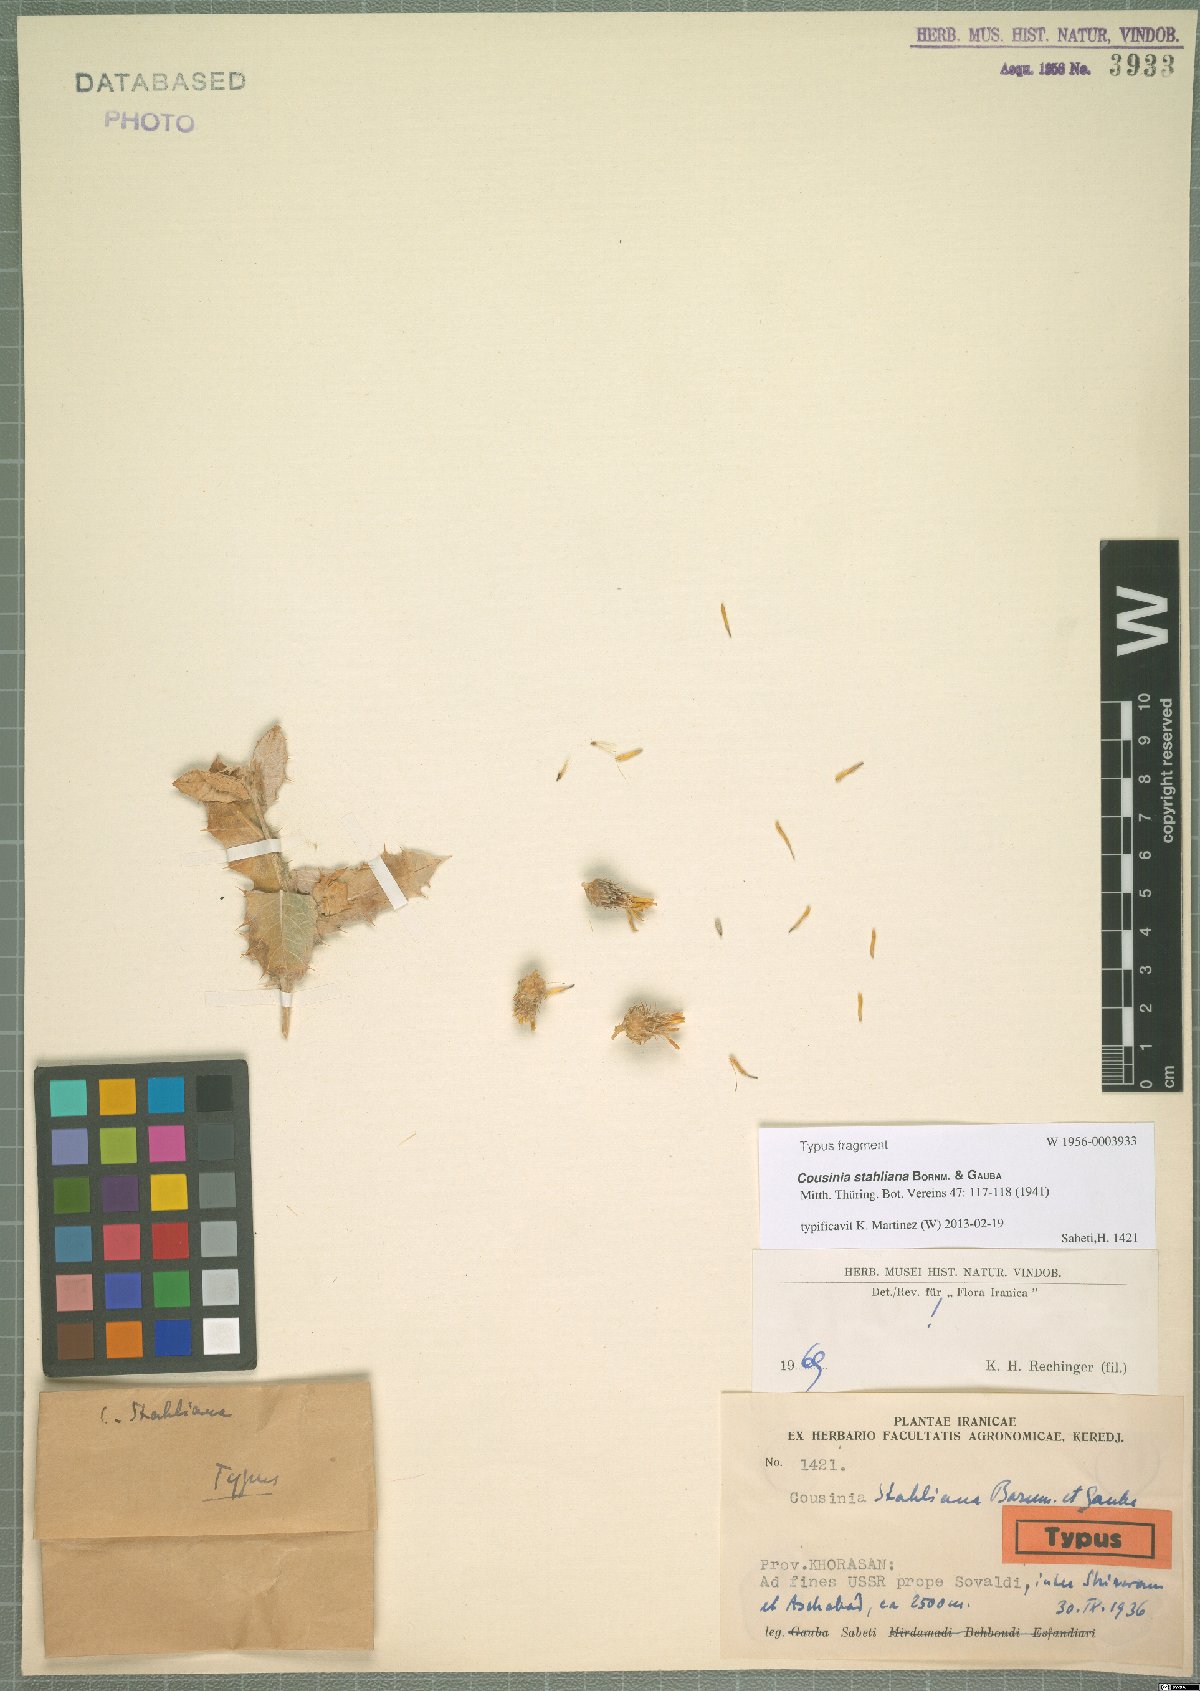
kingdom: Plantae
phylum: Tracheophyta
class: Magnoliopsida
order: Asterales
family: Asteraceae
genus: Cousinia
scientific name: Cousinia stahliana
